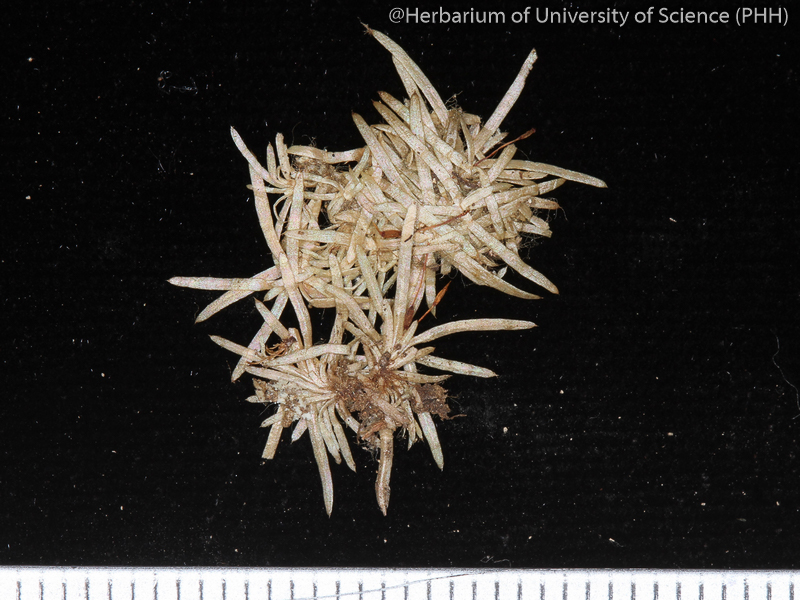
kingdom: Plantae
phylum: Bryophyta
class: Bryopsida
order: Dicranales
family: Octoblepharaceae
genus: Octoblepharum
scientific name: Octoblepharum albidum
